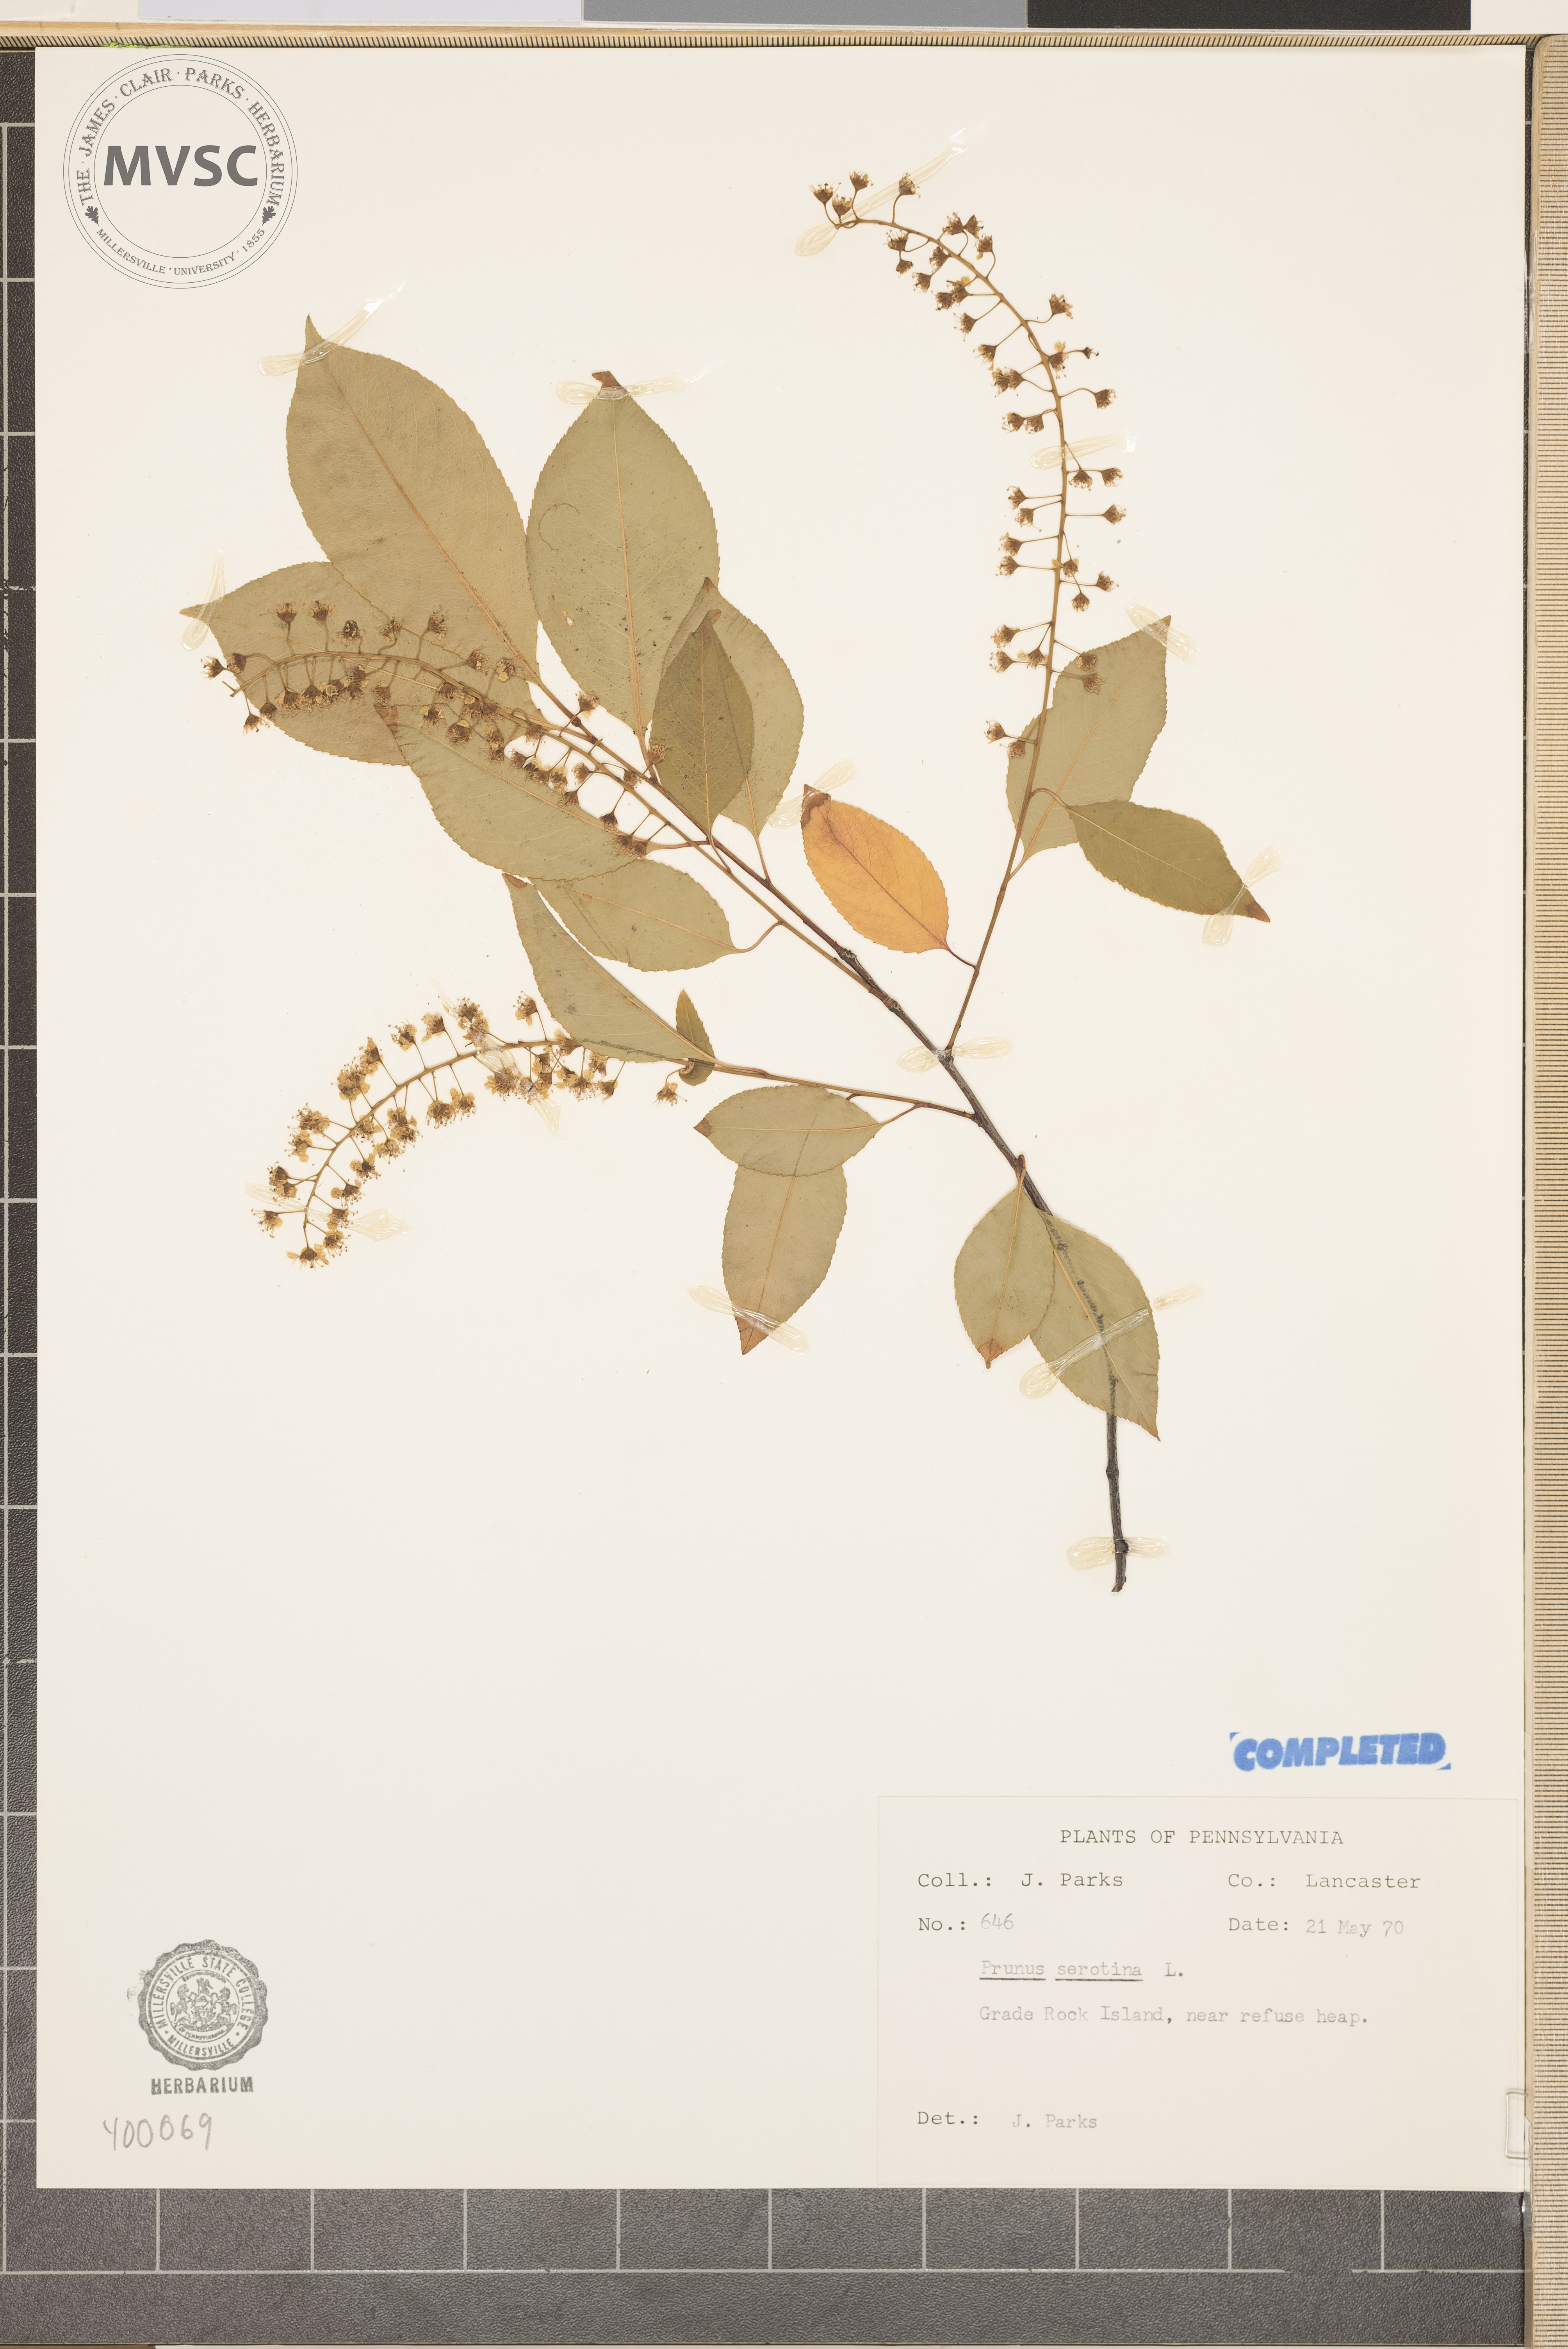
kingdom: Plantae
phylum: Tracheophyta
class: Magnoliopsida
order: Rosales
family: Rosaceae
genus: Prunus
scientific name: Prunus serotina
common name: wild black cherry
